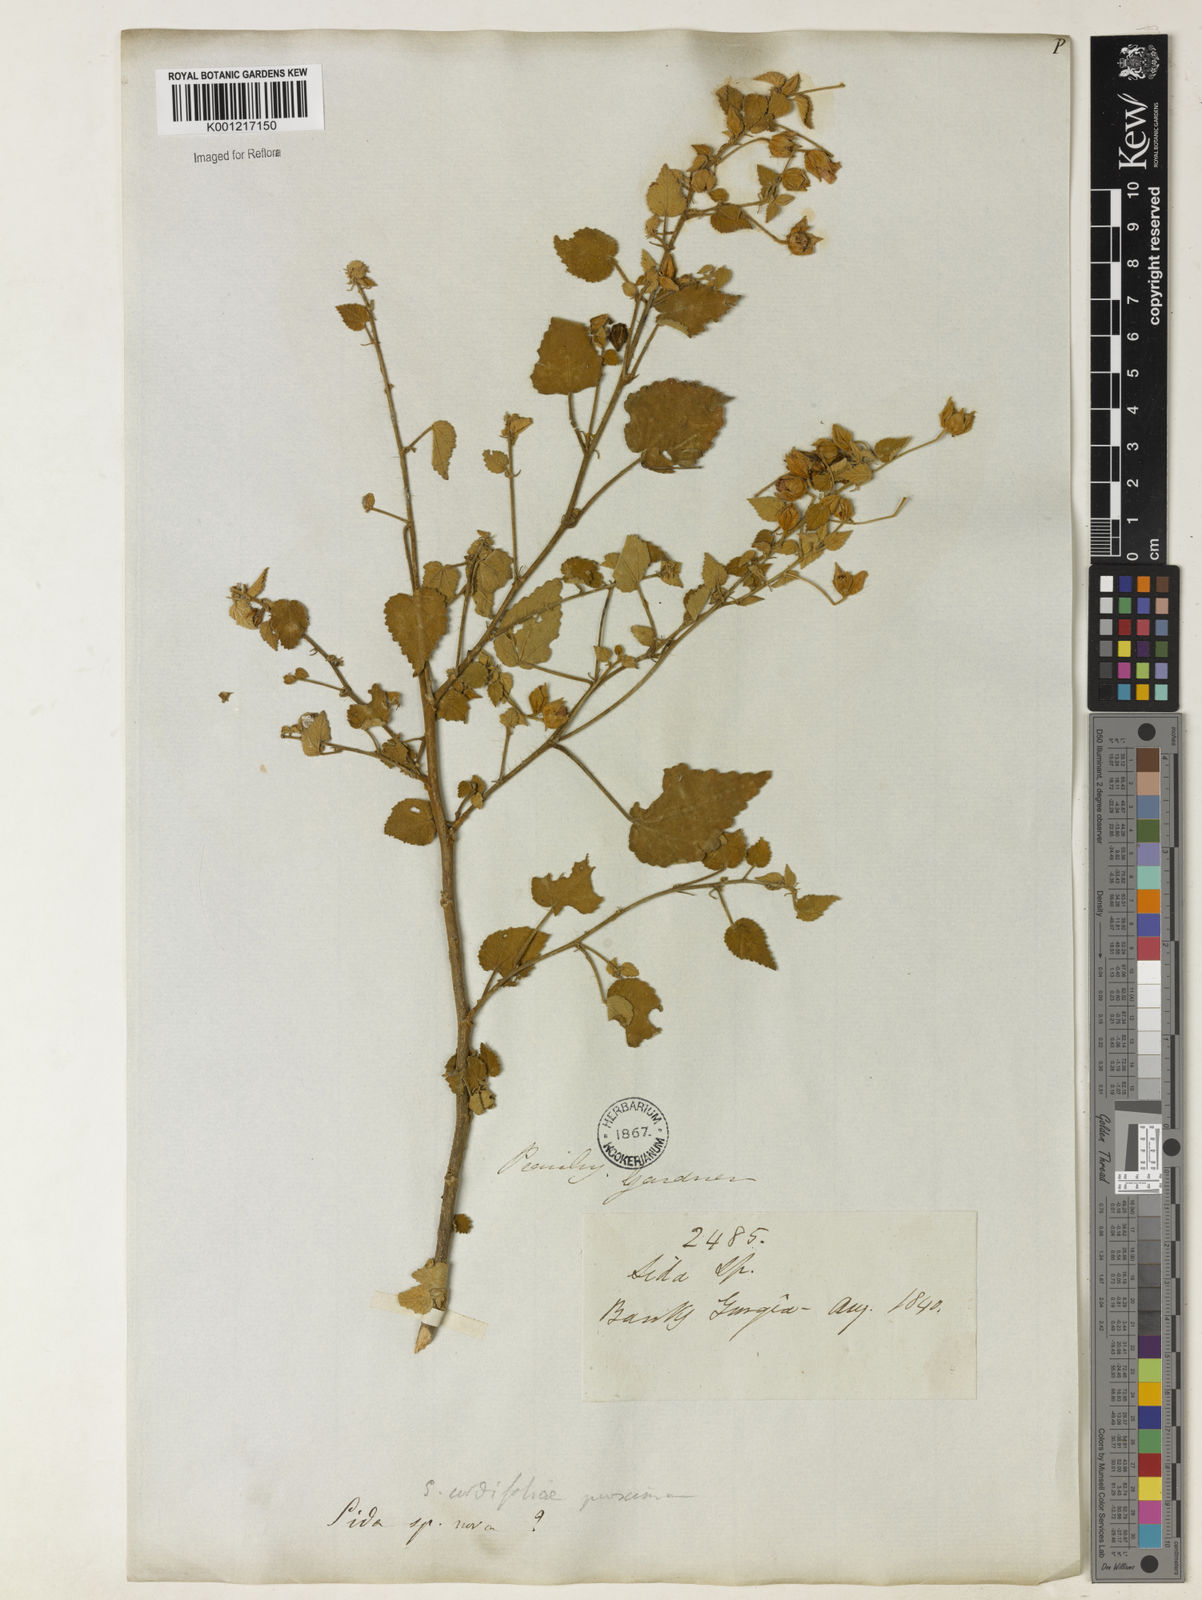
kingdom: Plantae
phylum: Tracheophyta
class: Magnoliopsida
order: Malvales
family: Malvaceae
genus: Sida
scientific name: Sida
